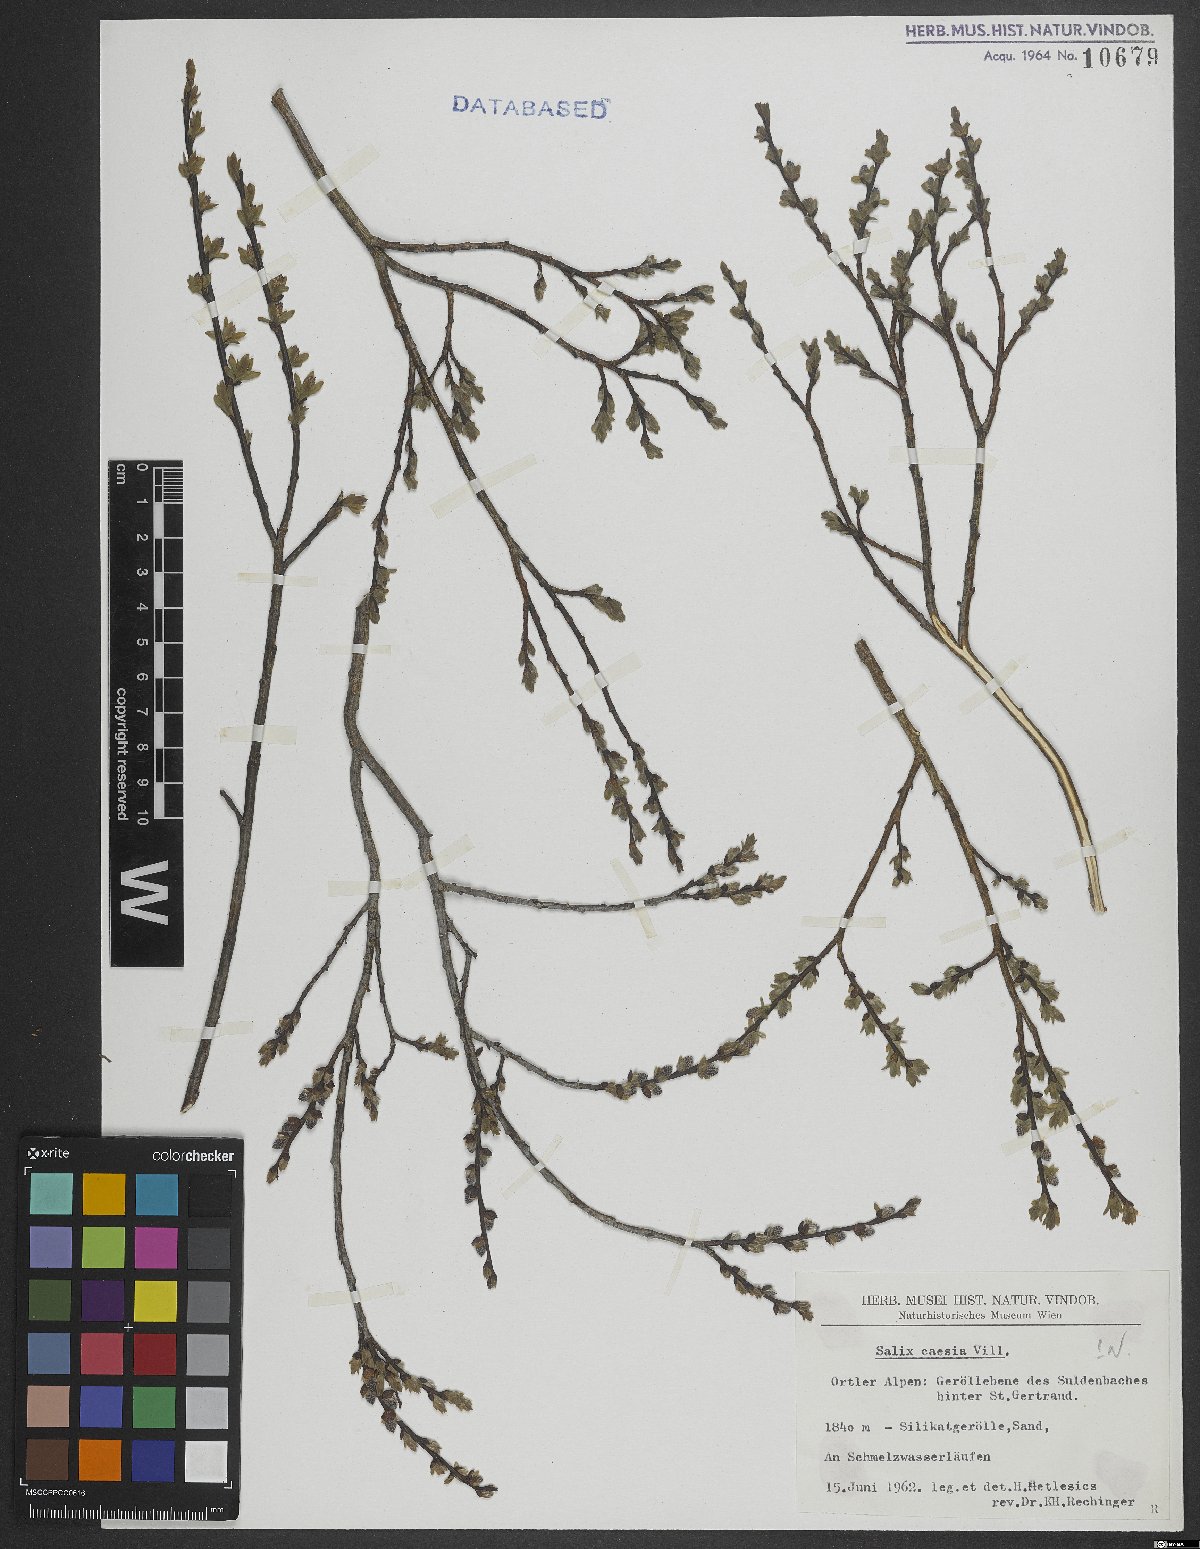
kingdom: Plantae
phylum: Tracheophyta
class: Magnoliopsida
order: Malpighiales
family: Salicaceae
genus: Salix
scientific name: Salix caesia
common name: Blue willow
